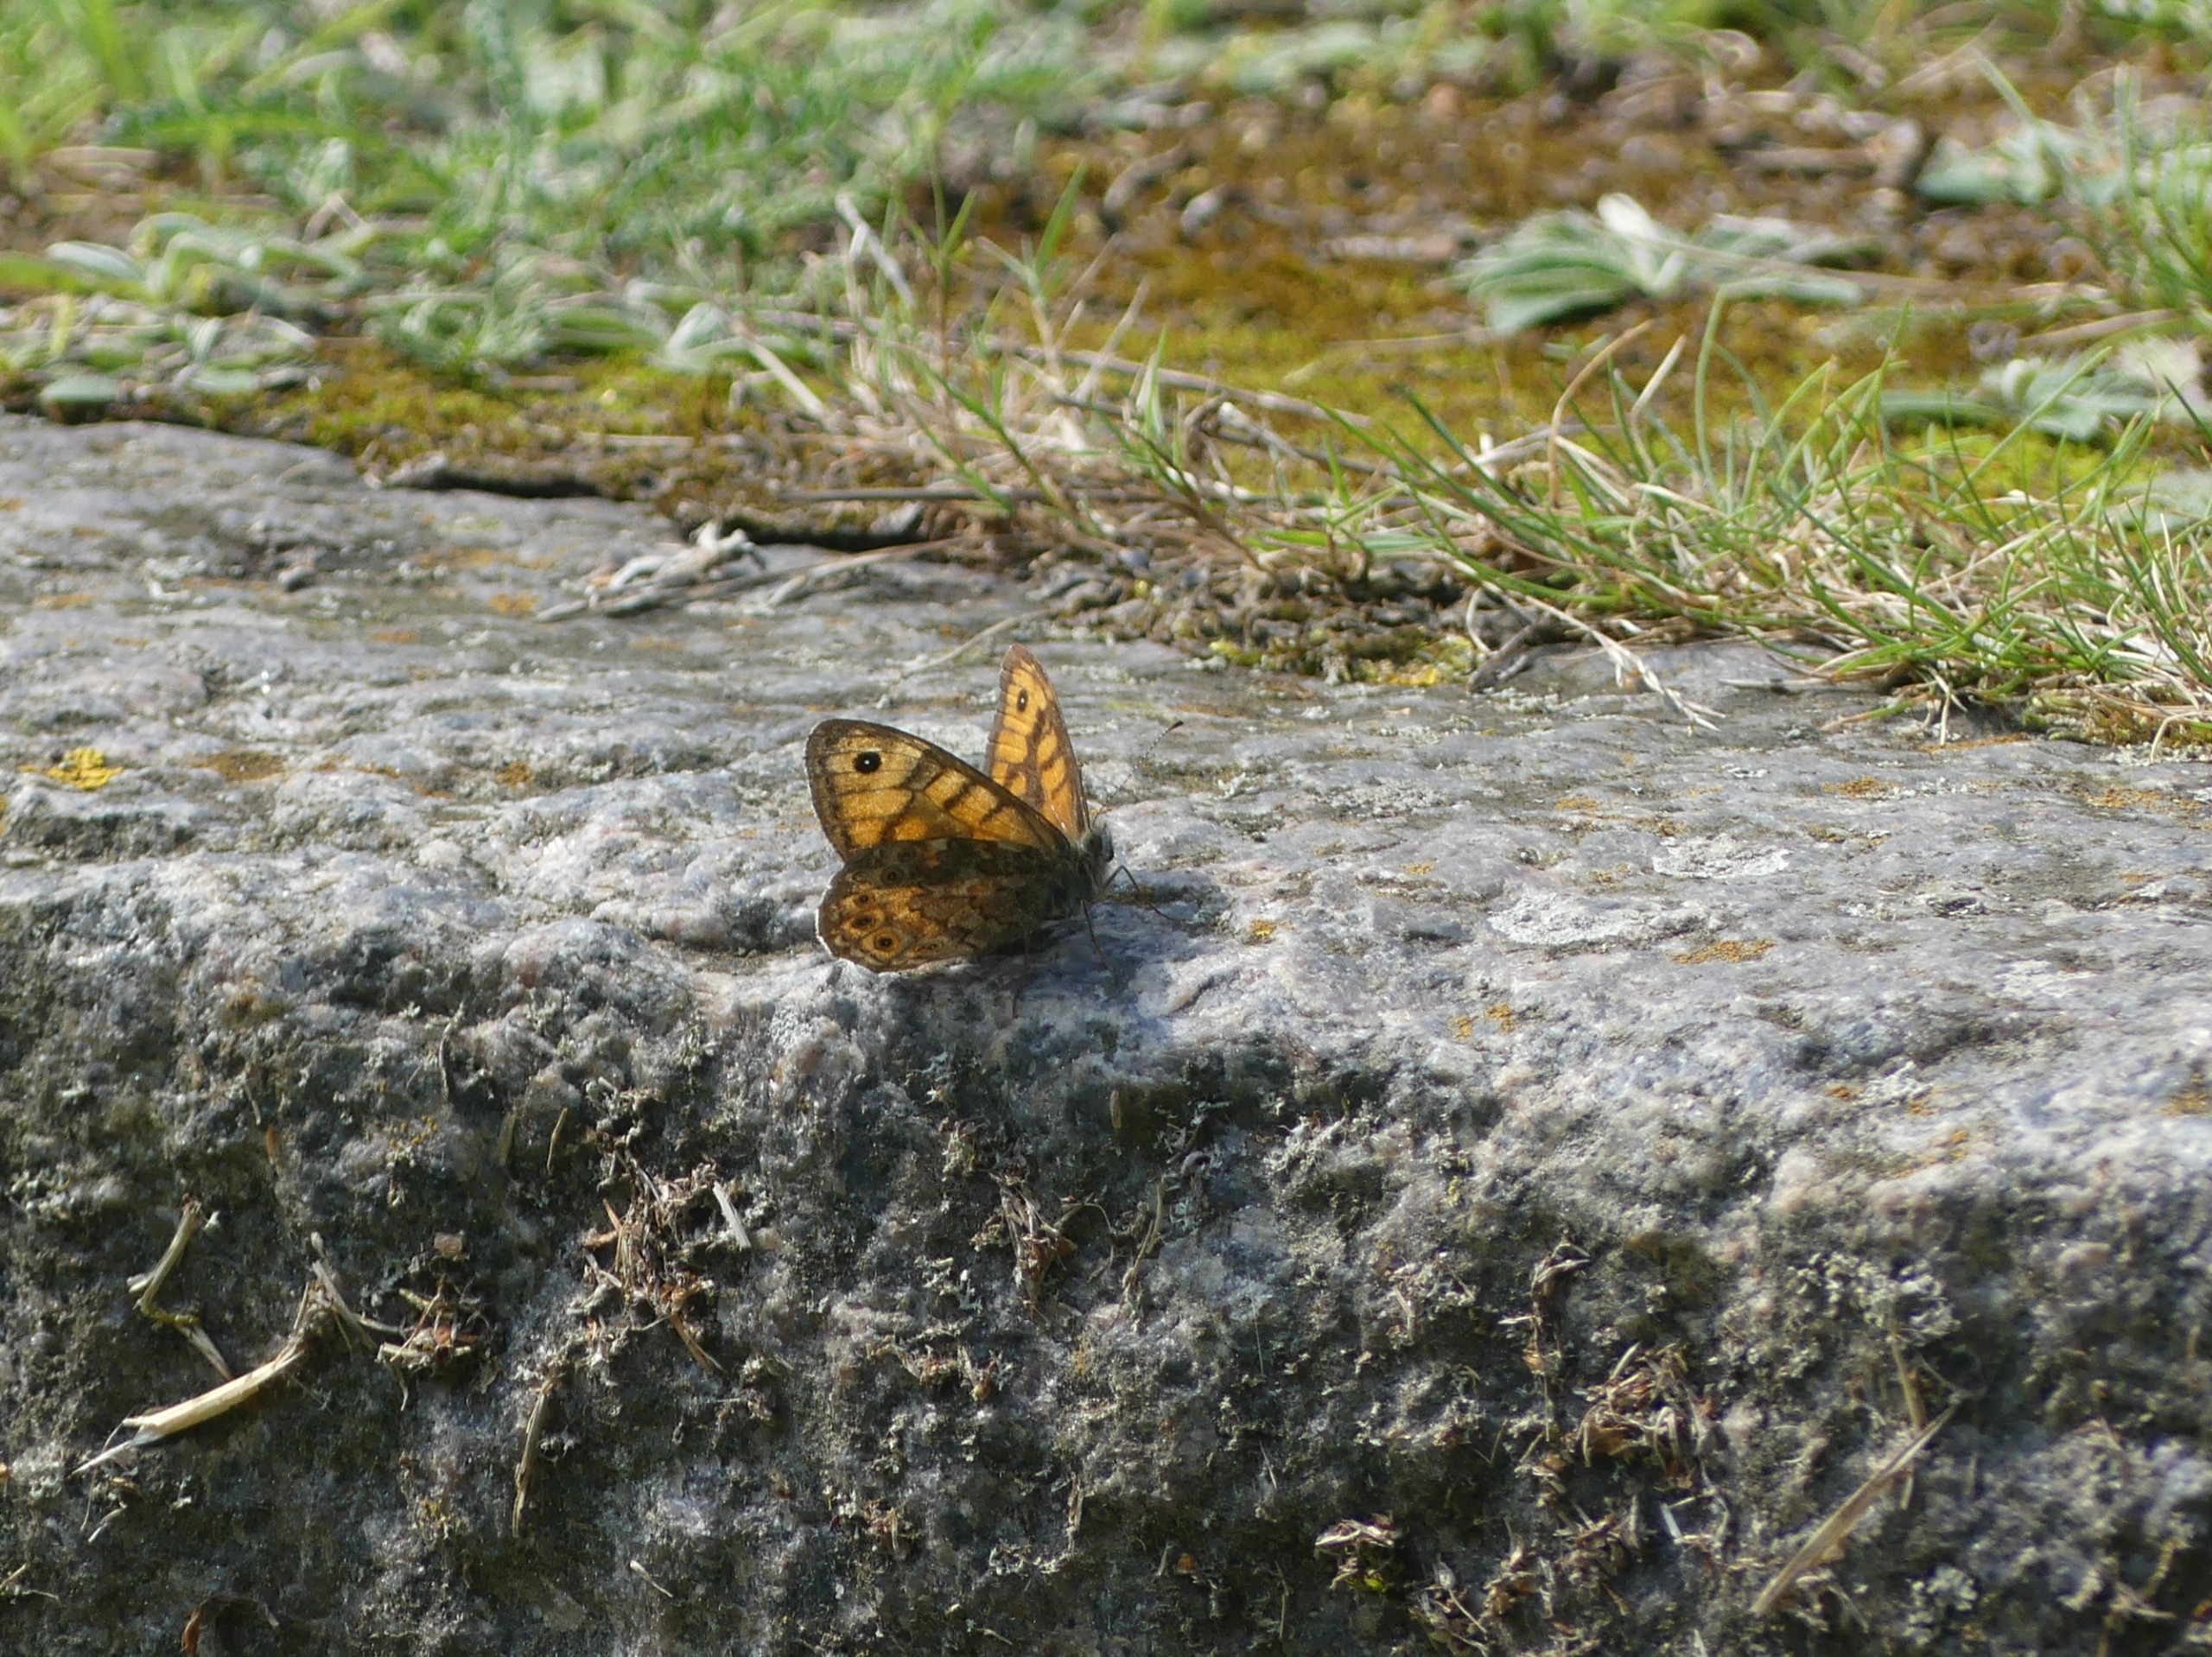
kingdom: Animalia
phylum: Arthropoda
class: Insecta
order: Lepidoptera
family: Nymphalidae
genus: Pararge
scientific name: Pararge Lasiommata megera
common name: Vejrandøje
